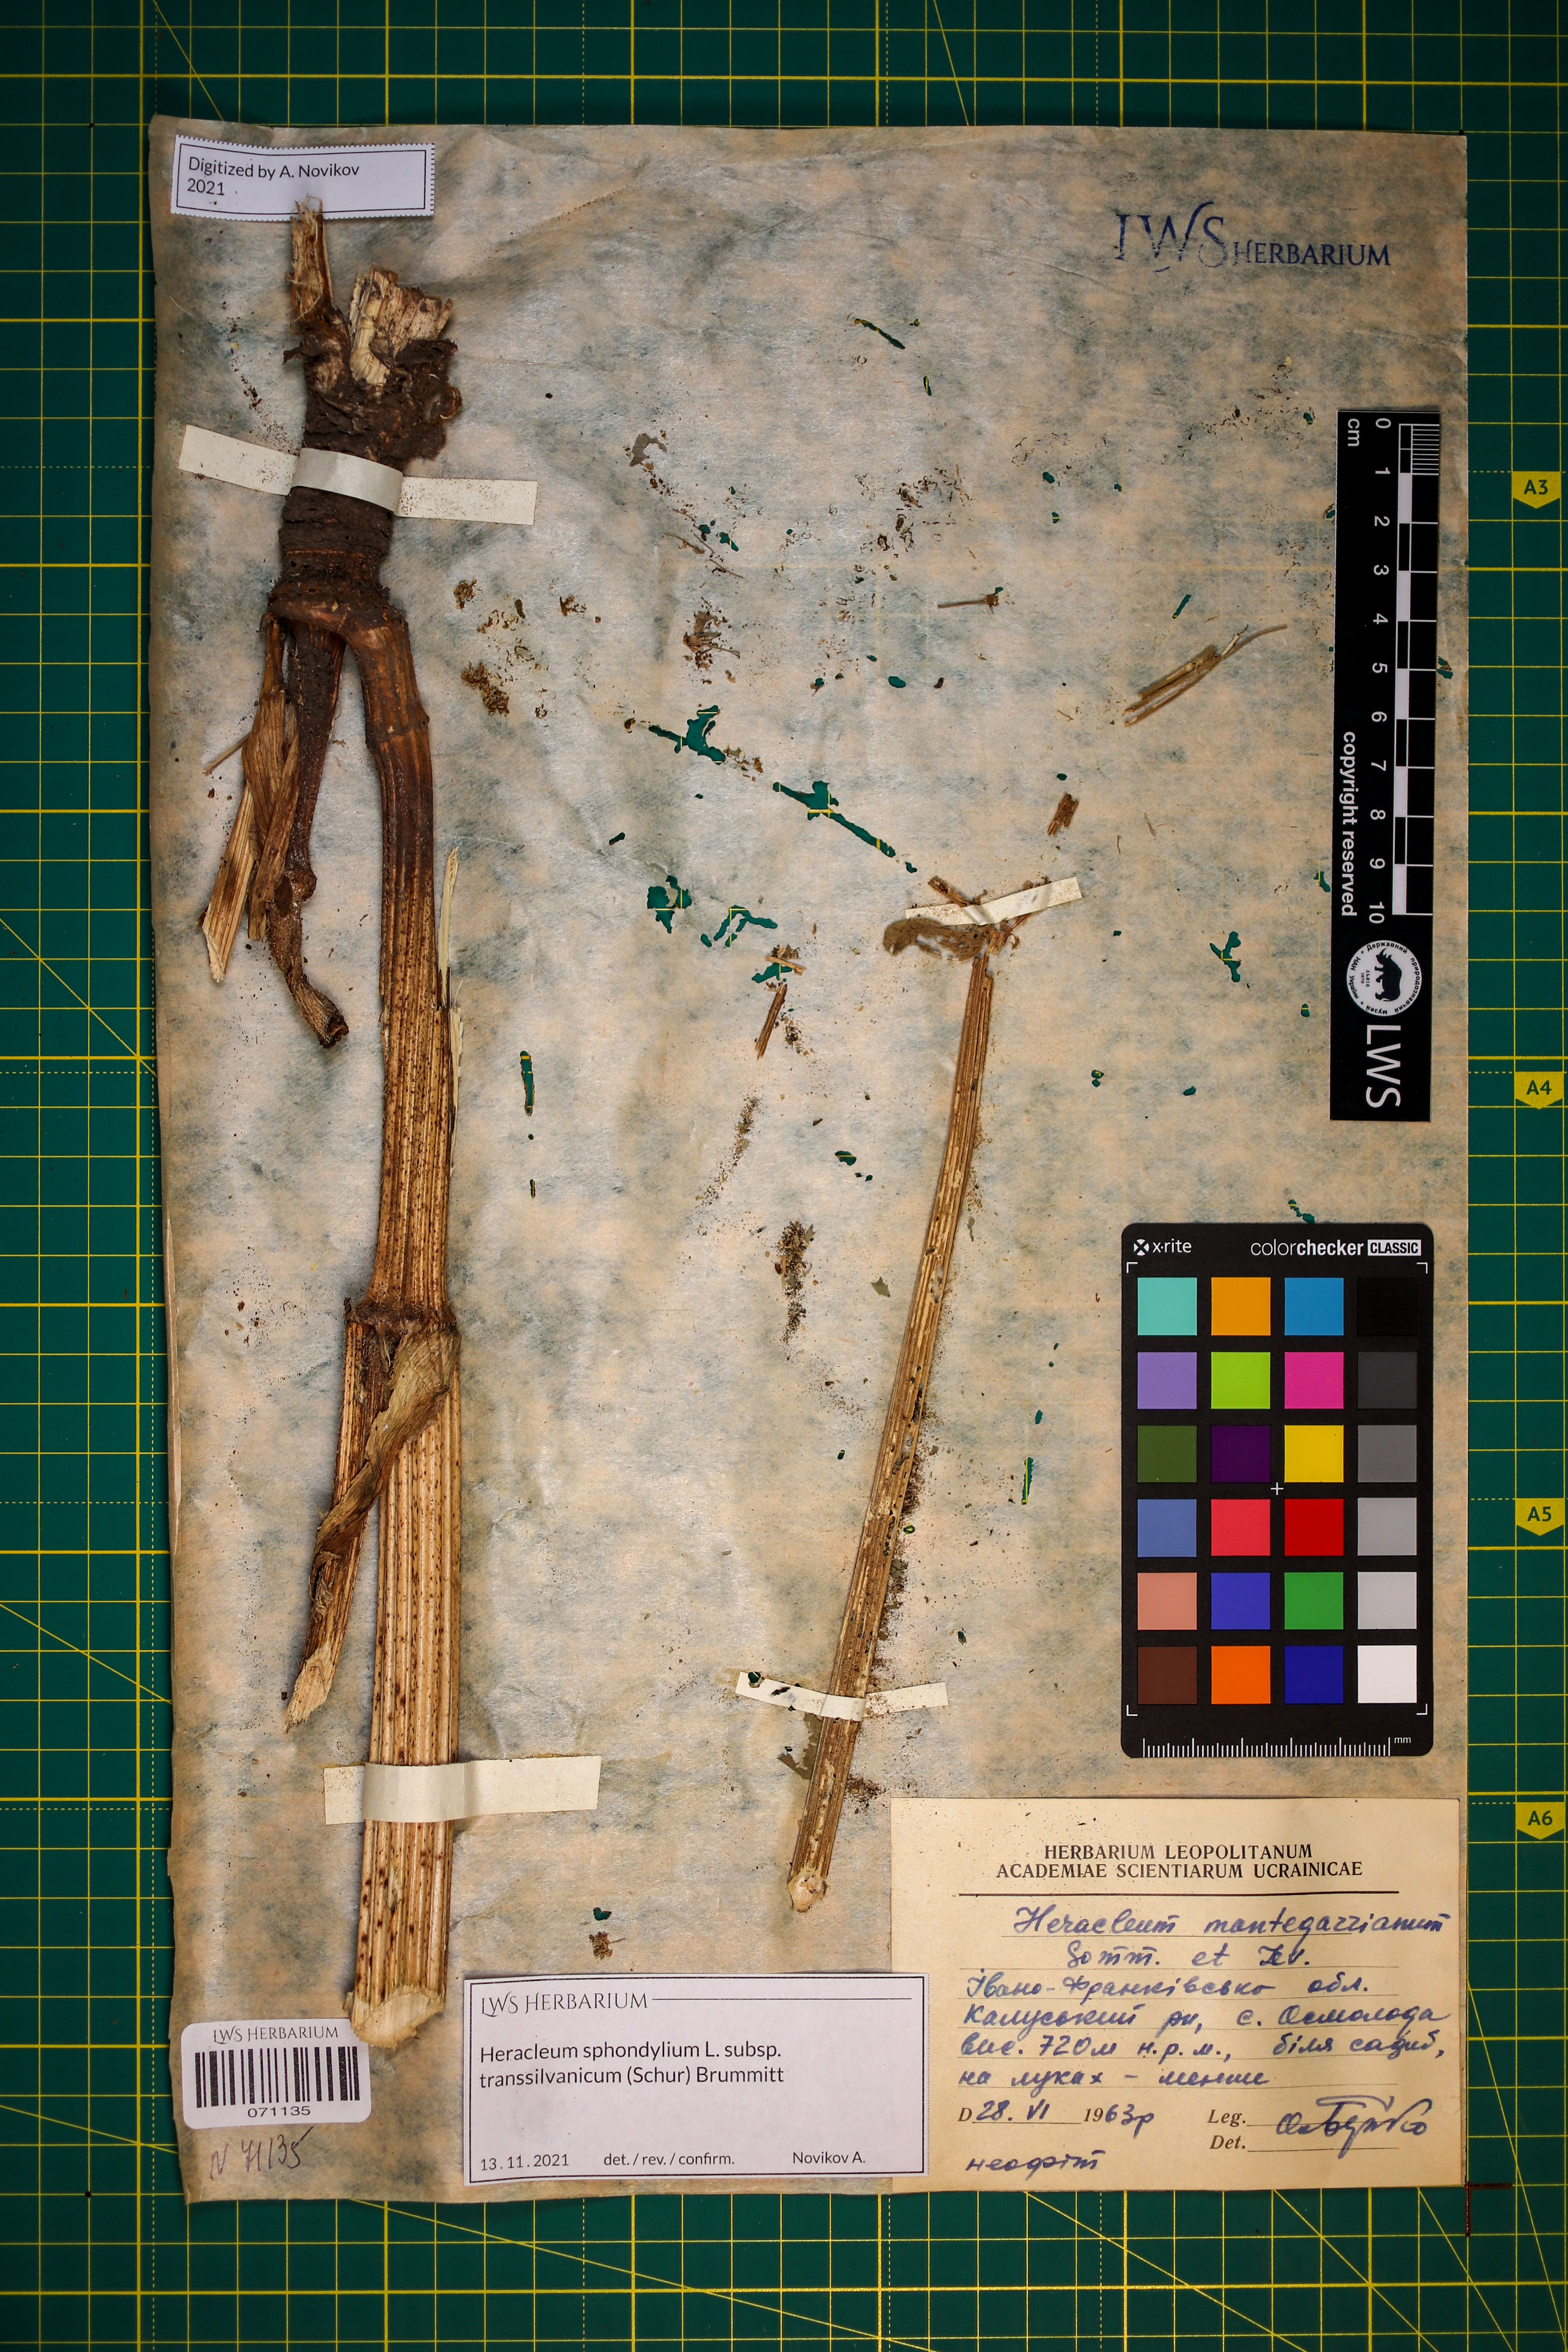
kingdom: Plantae
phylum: Tracheophyta
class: Magnoliopsida
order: Apiales
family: Apiaceae
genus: Heracleum
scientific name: Heracleum sphondylium
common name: Hogweed
